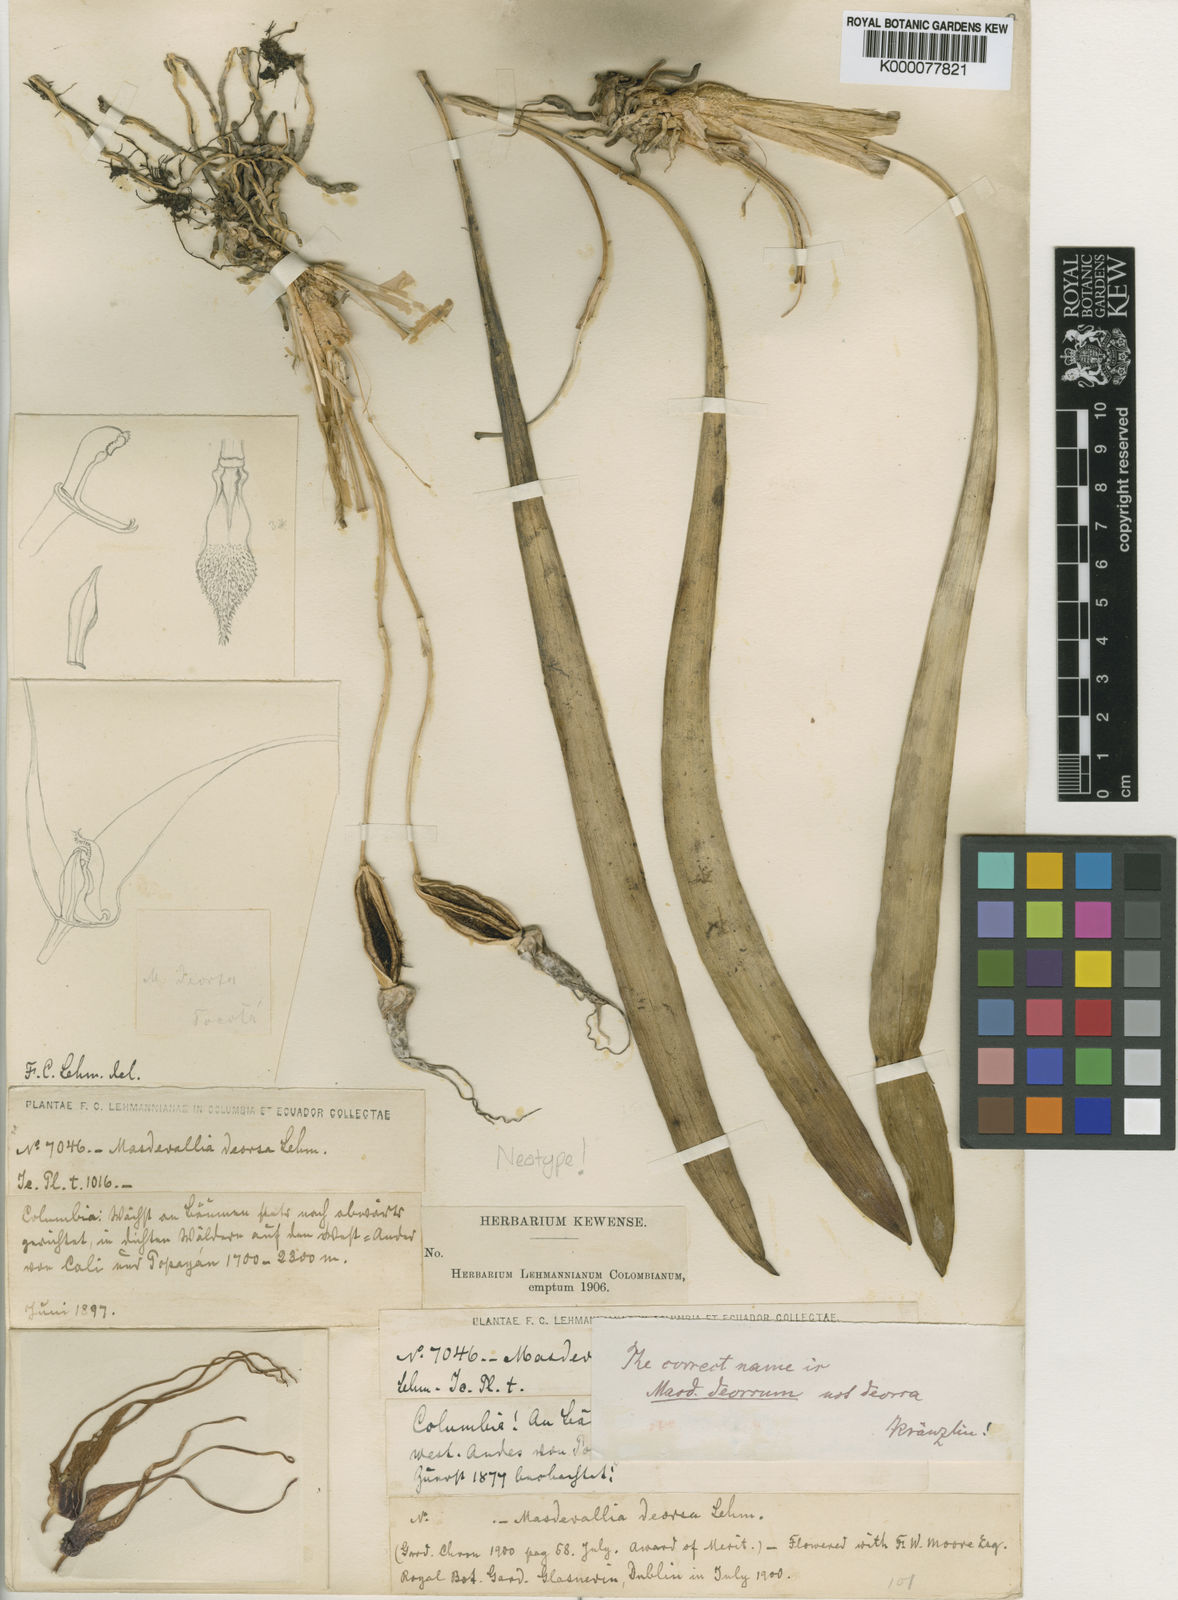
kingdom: Plantae
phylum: Tracheophyta
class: Liliopsida
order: Asparagales
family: Orchidaceae
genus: Masdevallia
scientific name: Masdevallia caesia
